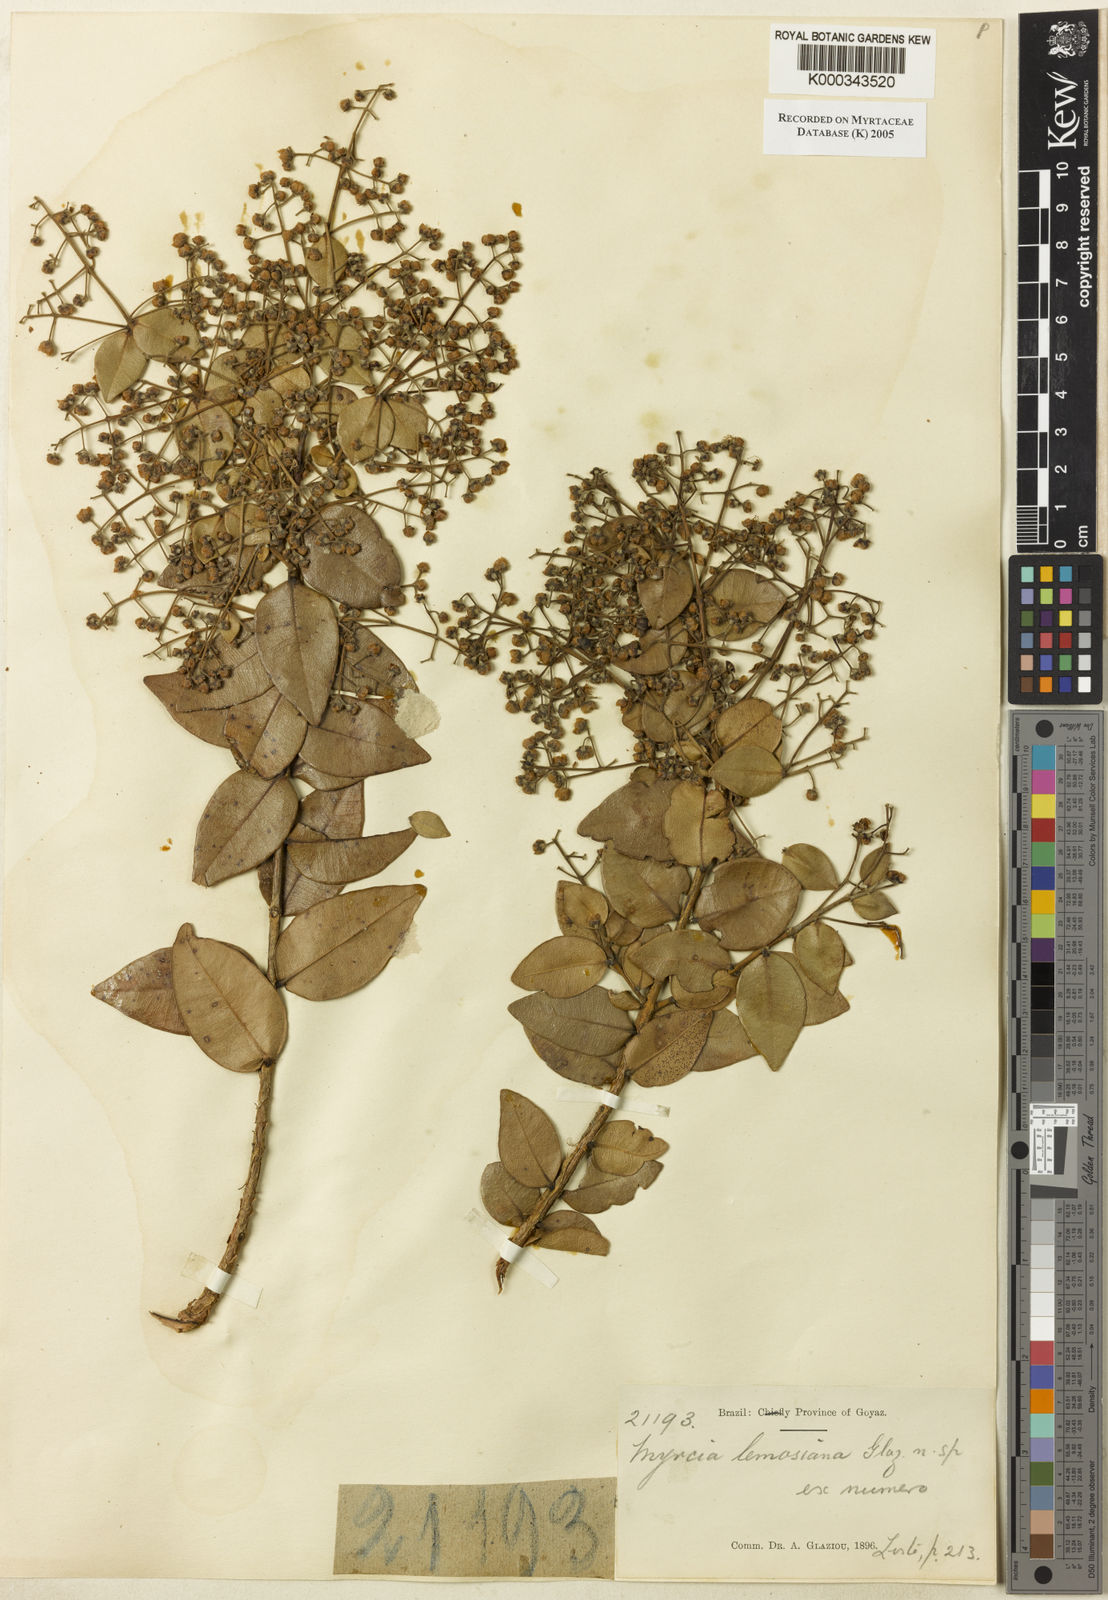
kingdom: Plantae
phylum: Tracheophyta
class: Magnoliopsida
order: Myrtales
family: Myrtaceae
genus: Myrcia
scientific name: Myrcia
